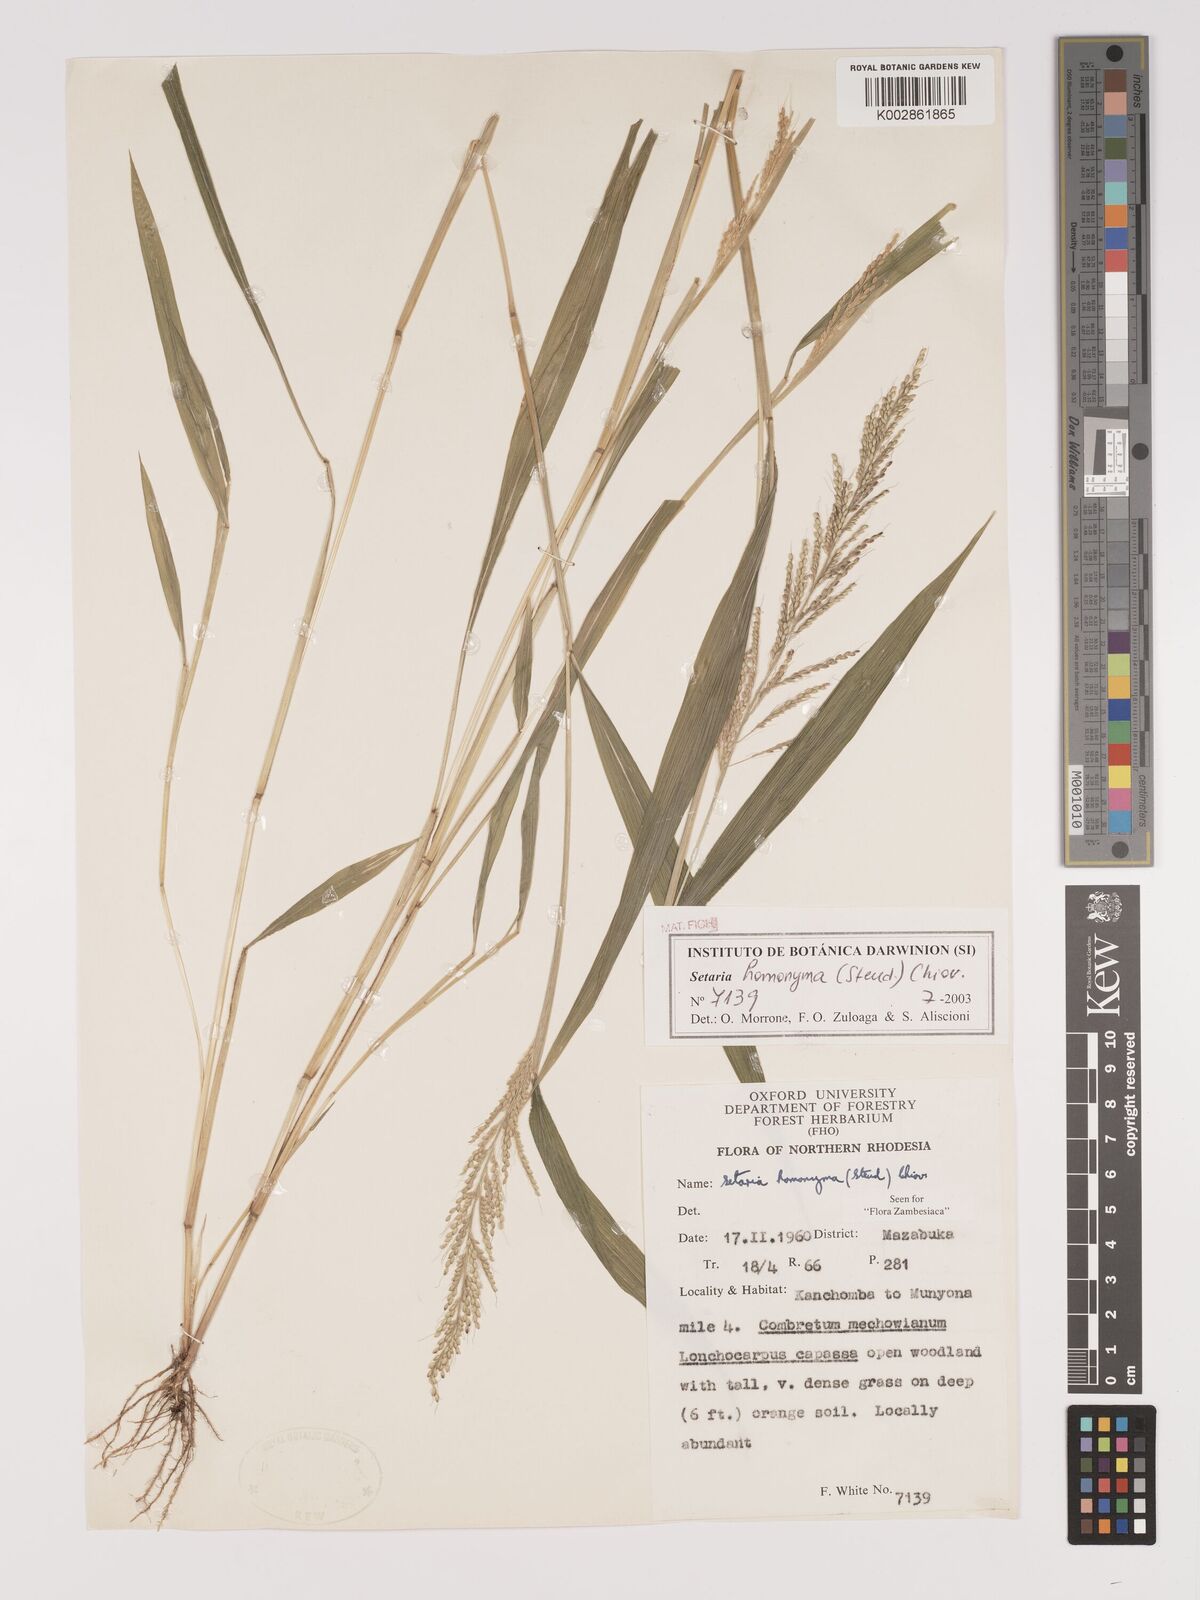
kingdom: Plantae
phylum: Tracheophyta
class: Liliopsida
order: Poales
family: Poaceae
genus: Setaria
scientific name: Setaria homonyma
